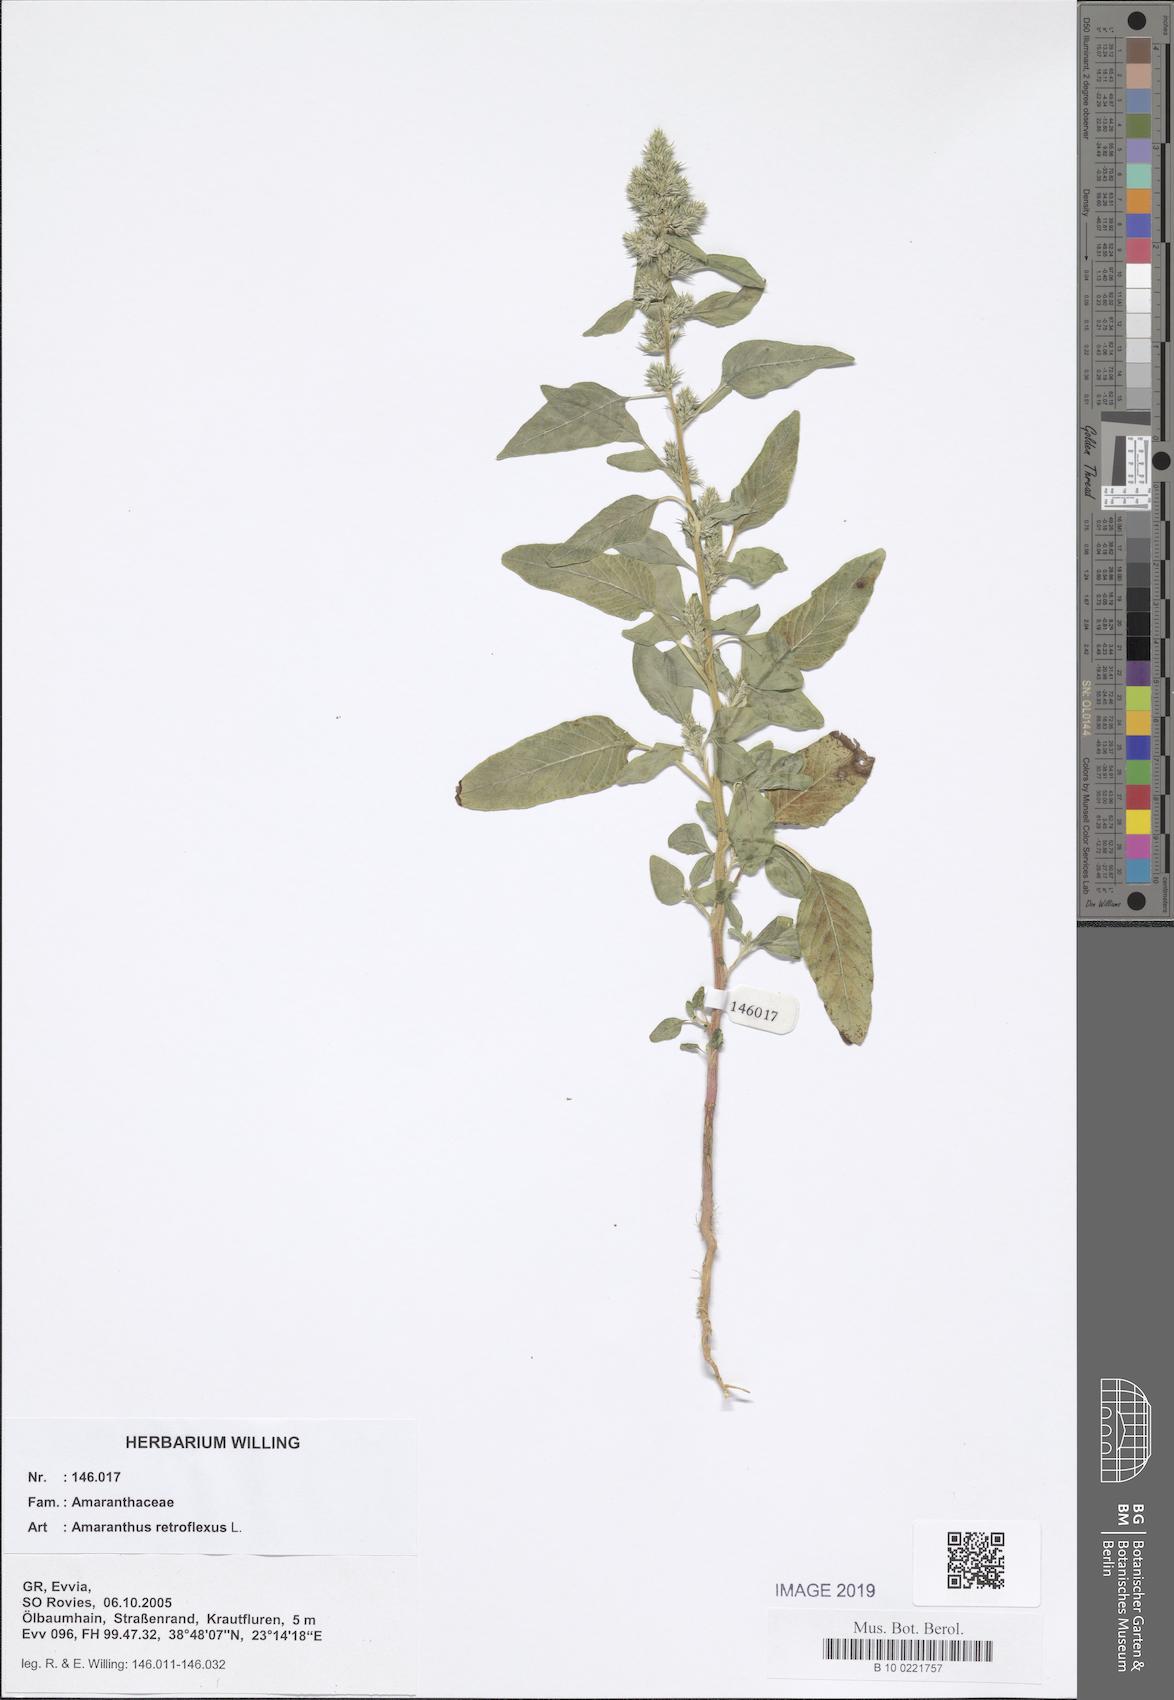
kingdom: Plantae
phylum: Tracheophyta
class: Magnoliopsida
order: Caryophyllales
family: Amaranthaceae
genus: Amaranthus
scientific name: Amaranthus retroflexus
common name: Redroot amaranth
